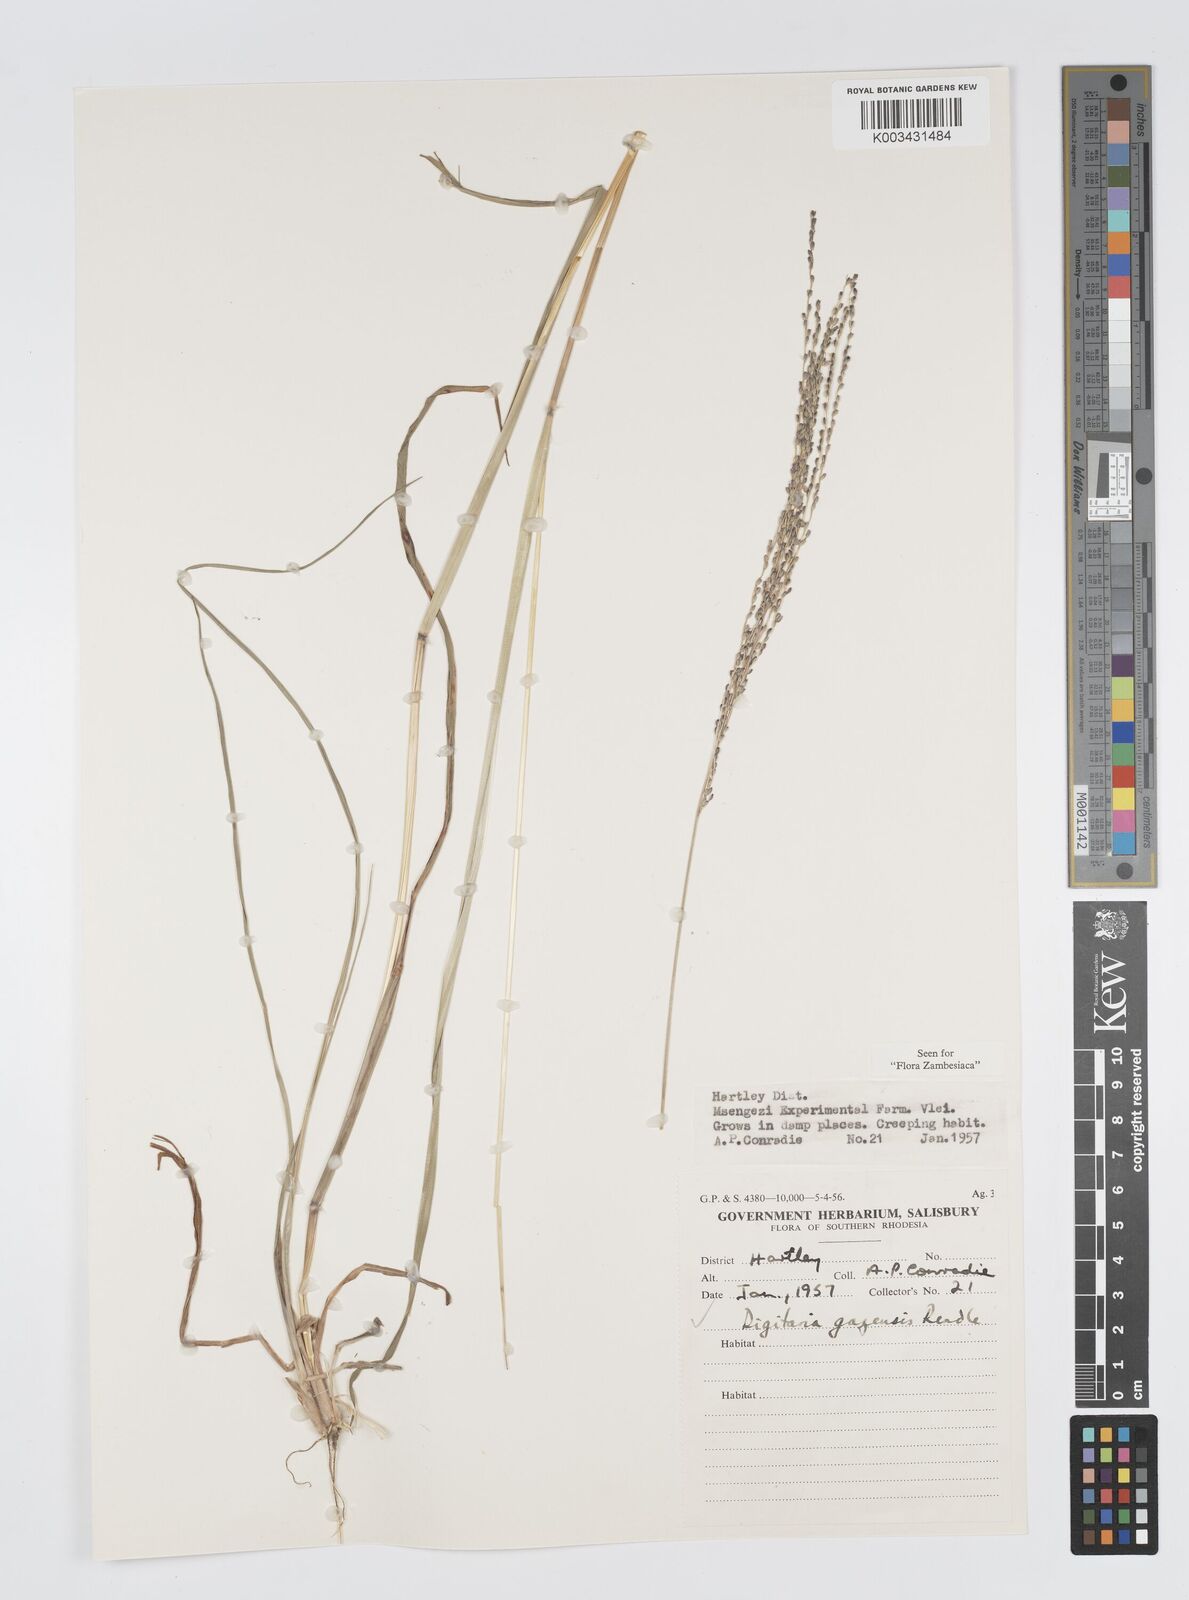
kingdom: Plantae
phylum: Tracheophyta
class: Liliopsida
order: Poales
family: Poaceae
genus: Digitaria
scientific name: Digitaria gazensis
